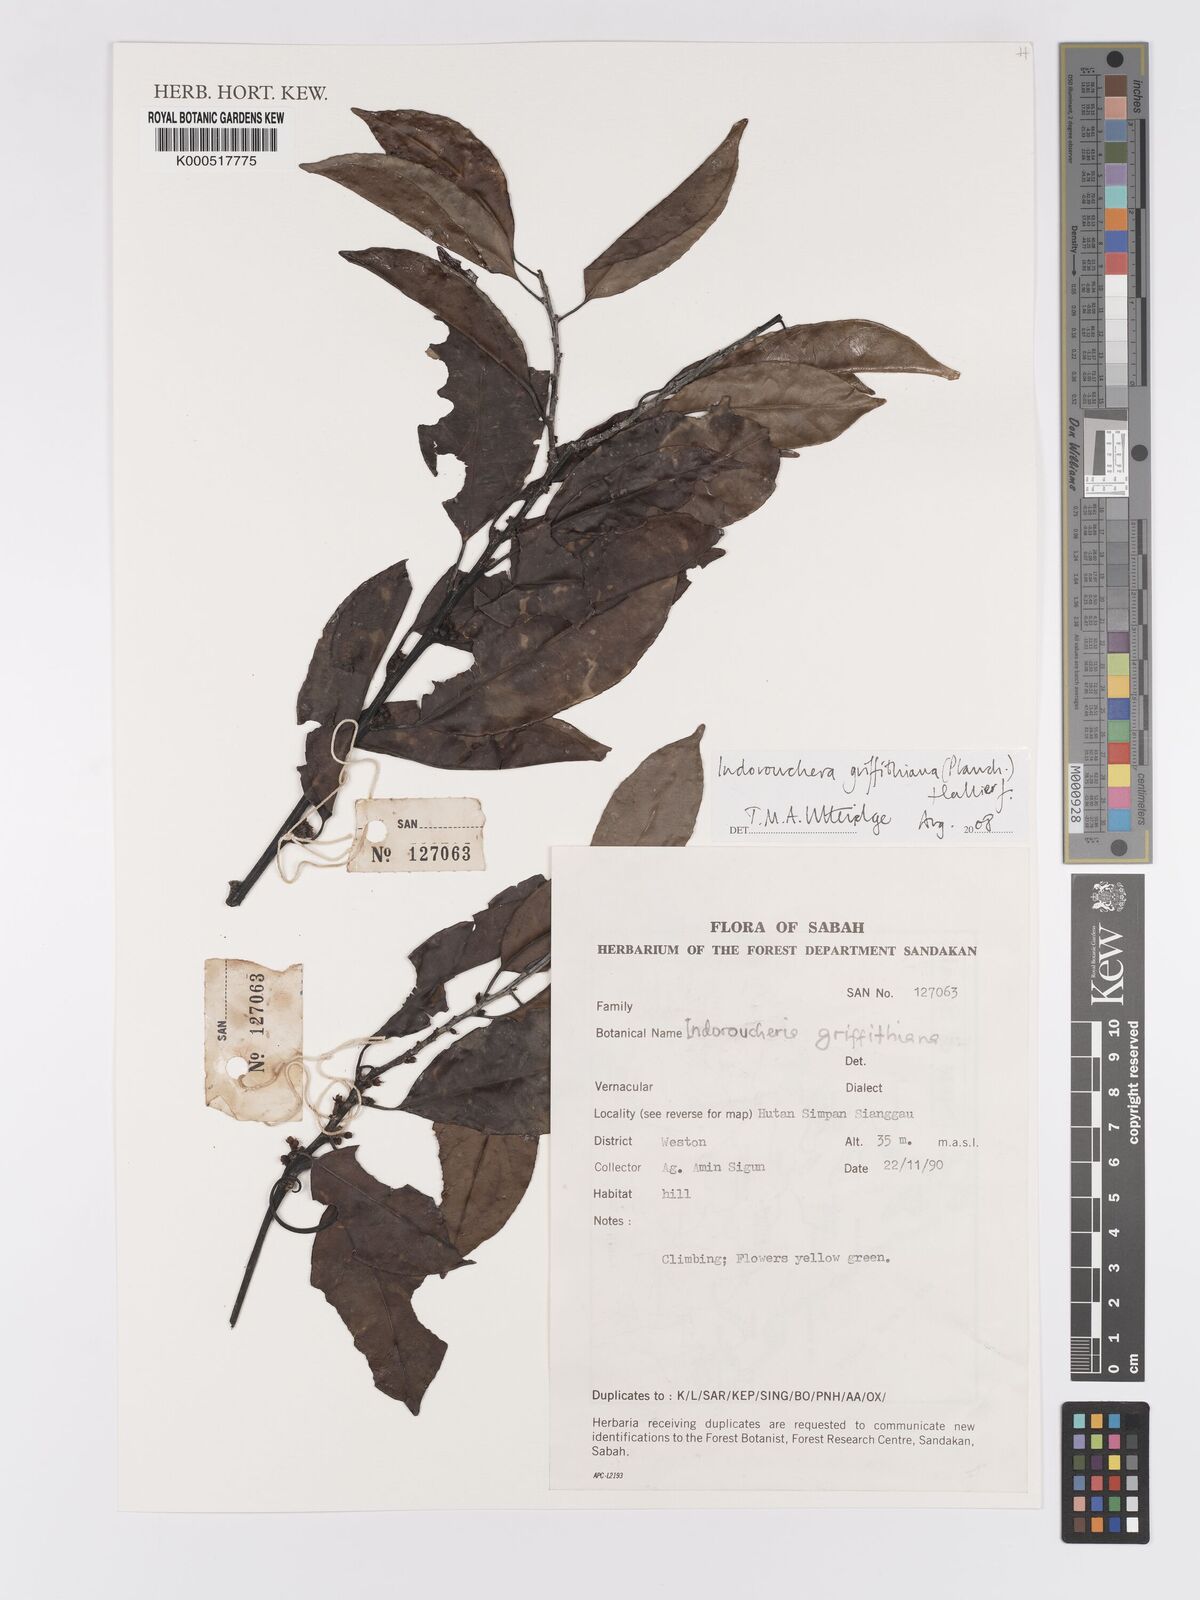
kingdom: Plantae
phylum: Tracheophyta
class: Magnoliopsida
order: Malpighiales
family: Linaceae
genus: Indorouchera
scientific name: Indorouchera griffithiana
